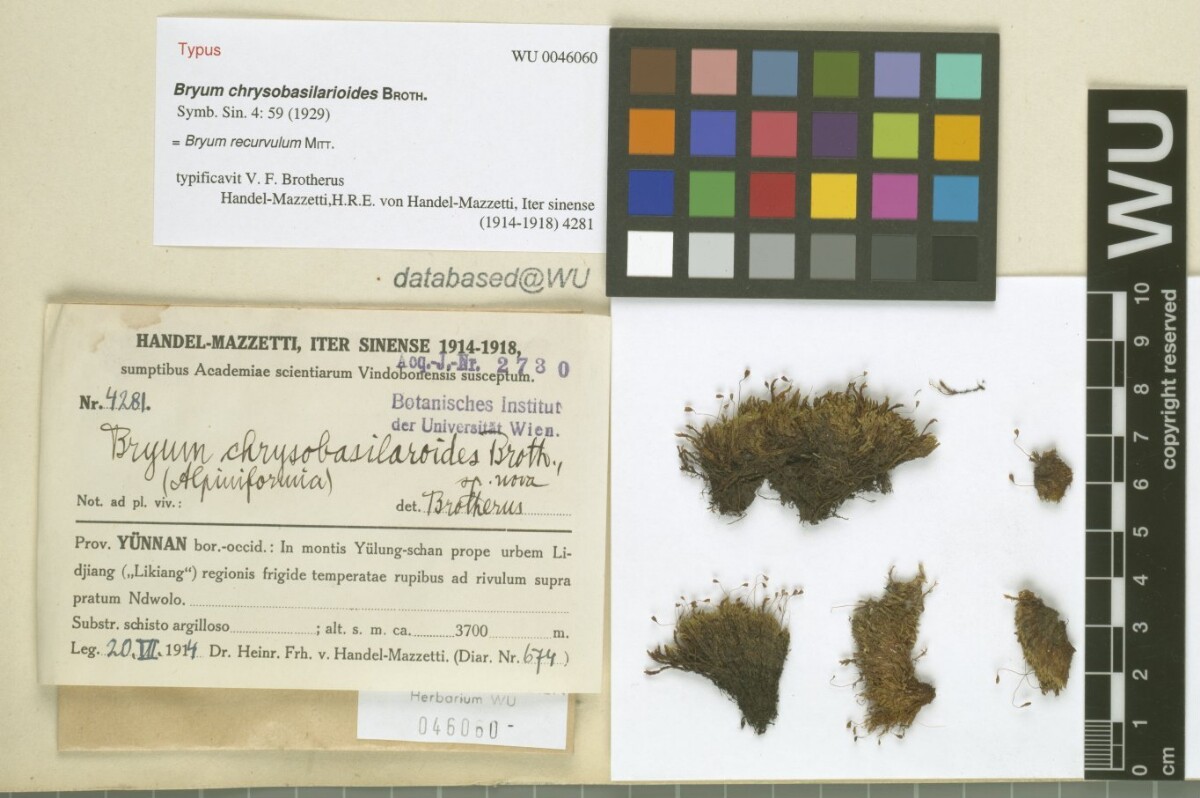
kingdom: Plantae
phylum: Bryophyta
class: Bryopsida
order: Bryales
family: Bryaceae
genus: Bryum
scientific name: Bryum recurvulum
